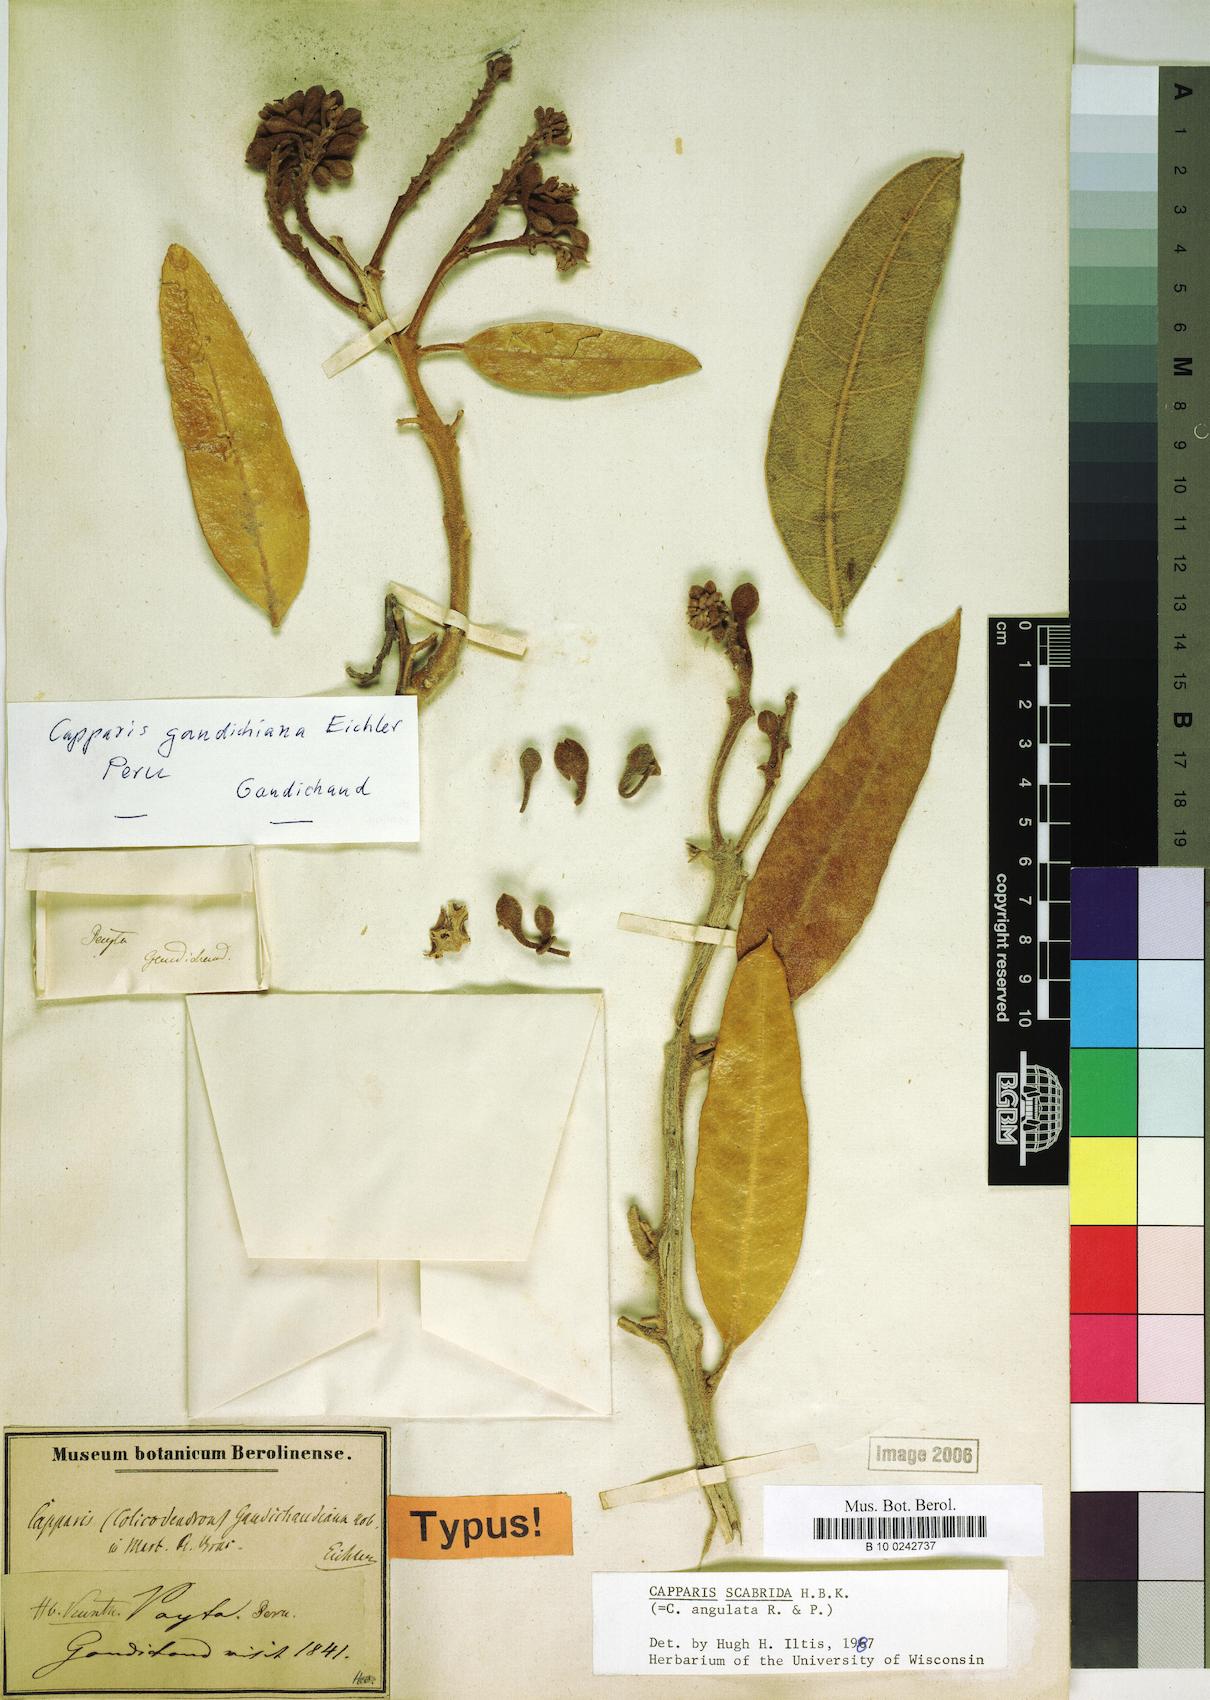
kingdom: Plantae
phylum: Tracheophyta
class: Magnoliopsida
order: Brassicales
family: Capparaceae
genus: Colicodendron
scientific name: Colicodendron scabridum
